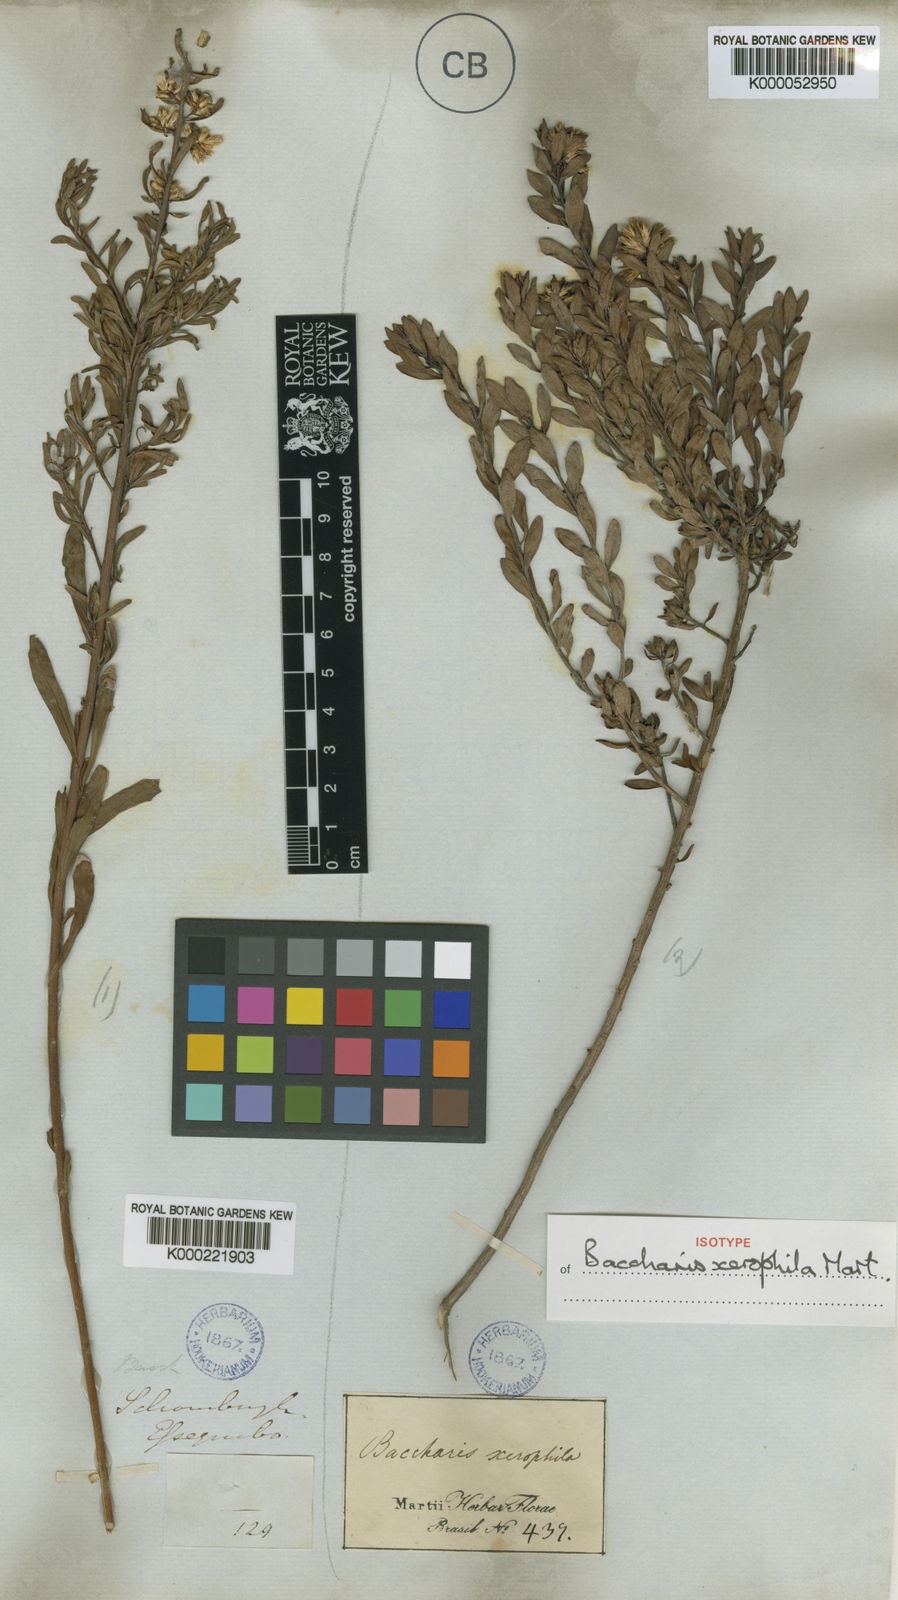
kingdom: Plantae
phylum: Tracheophyta
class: Magnoliopsida
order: Asterales
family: Asteraceae
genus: Baccharis
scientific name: Baccharis sessiliflora
